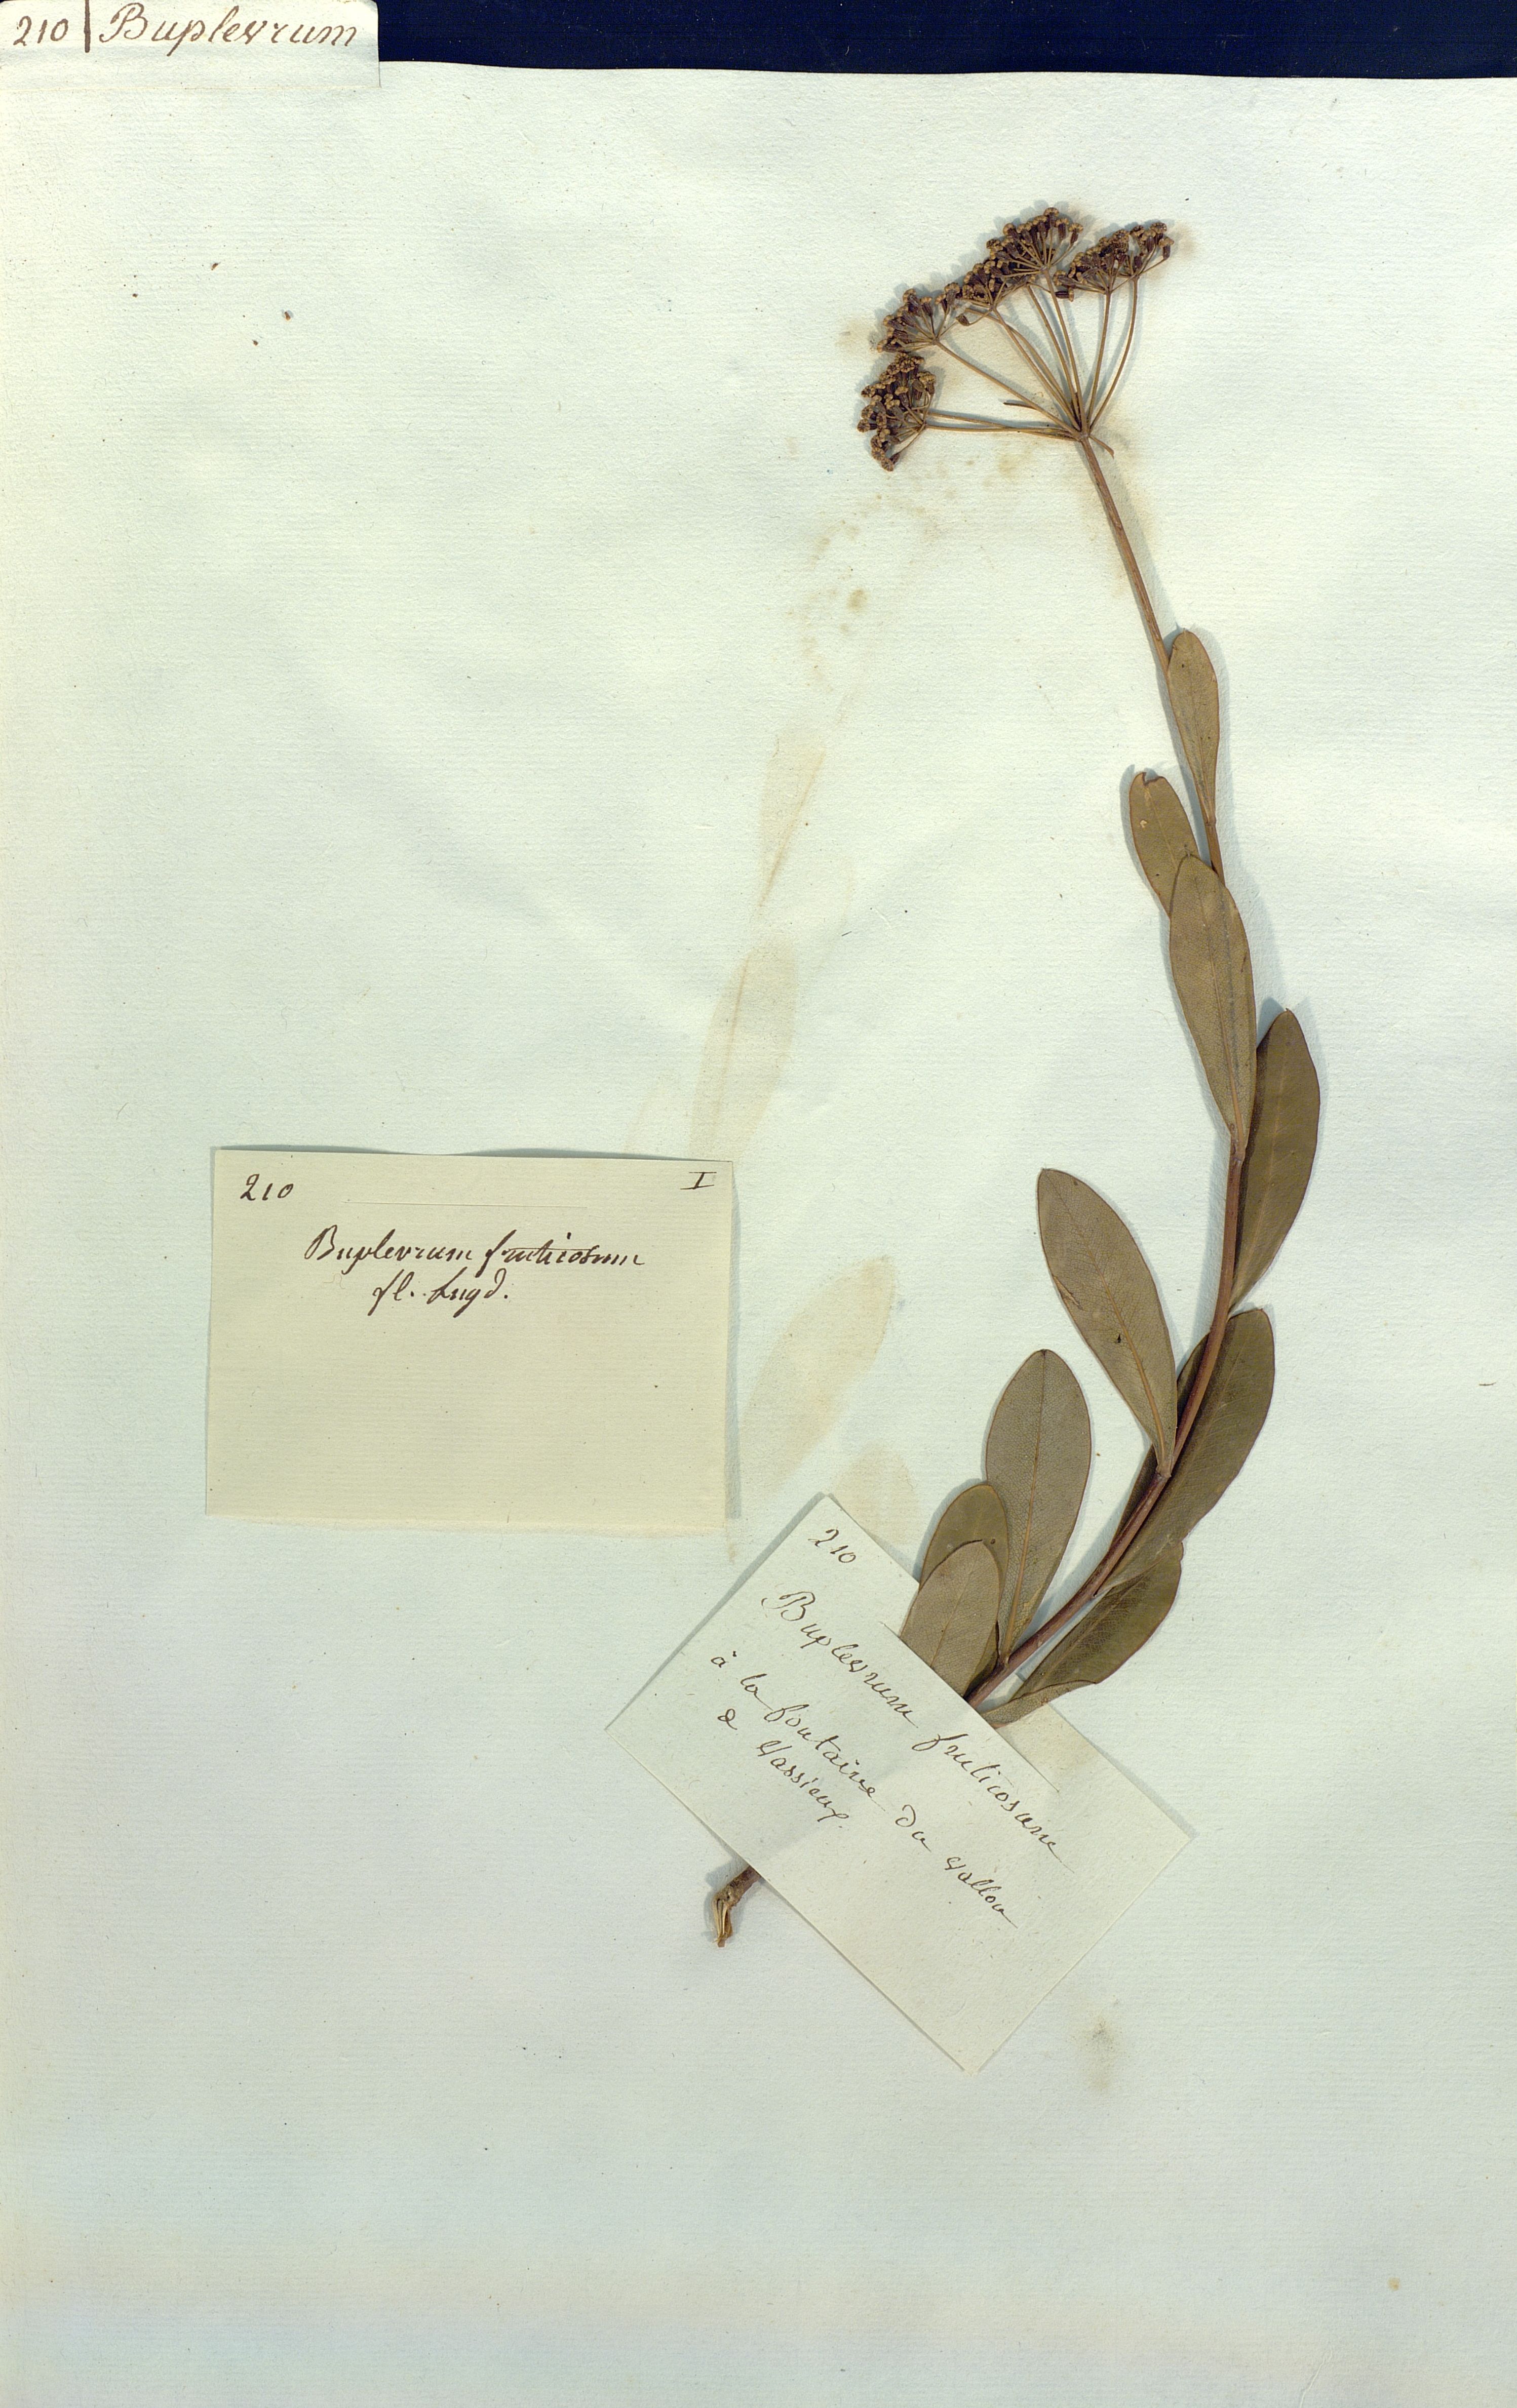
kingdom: Plantae
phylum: Tracheophyta
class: Magnoliopsida
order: Apiales
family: Apiaceae
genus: Bupleurum
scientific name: Bupleurum fruticosum
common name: Shrubby hare's-ear
